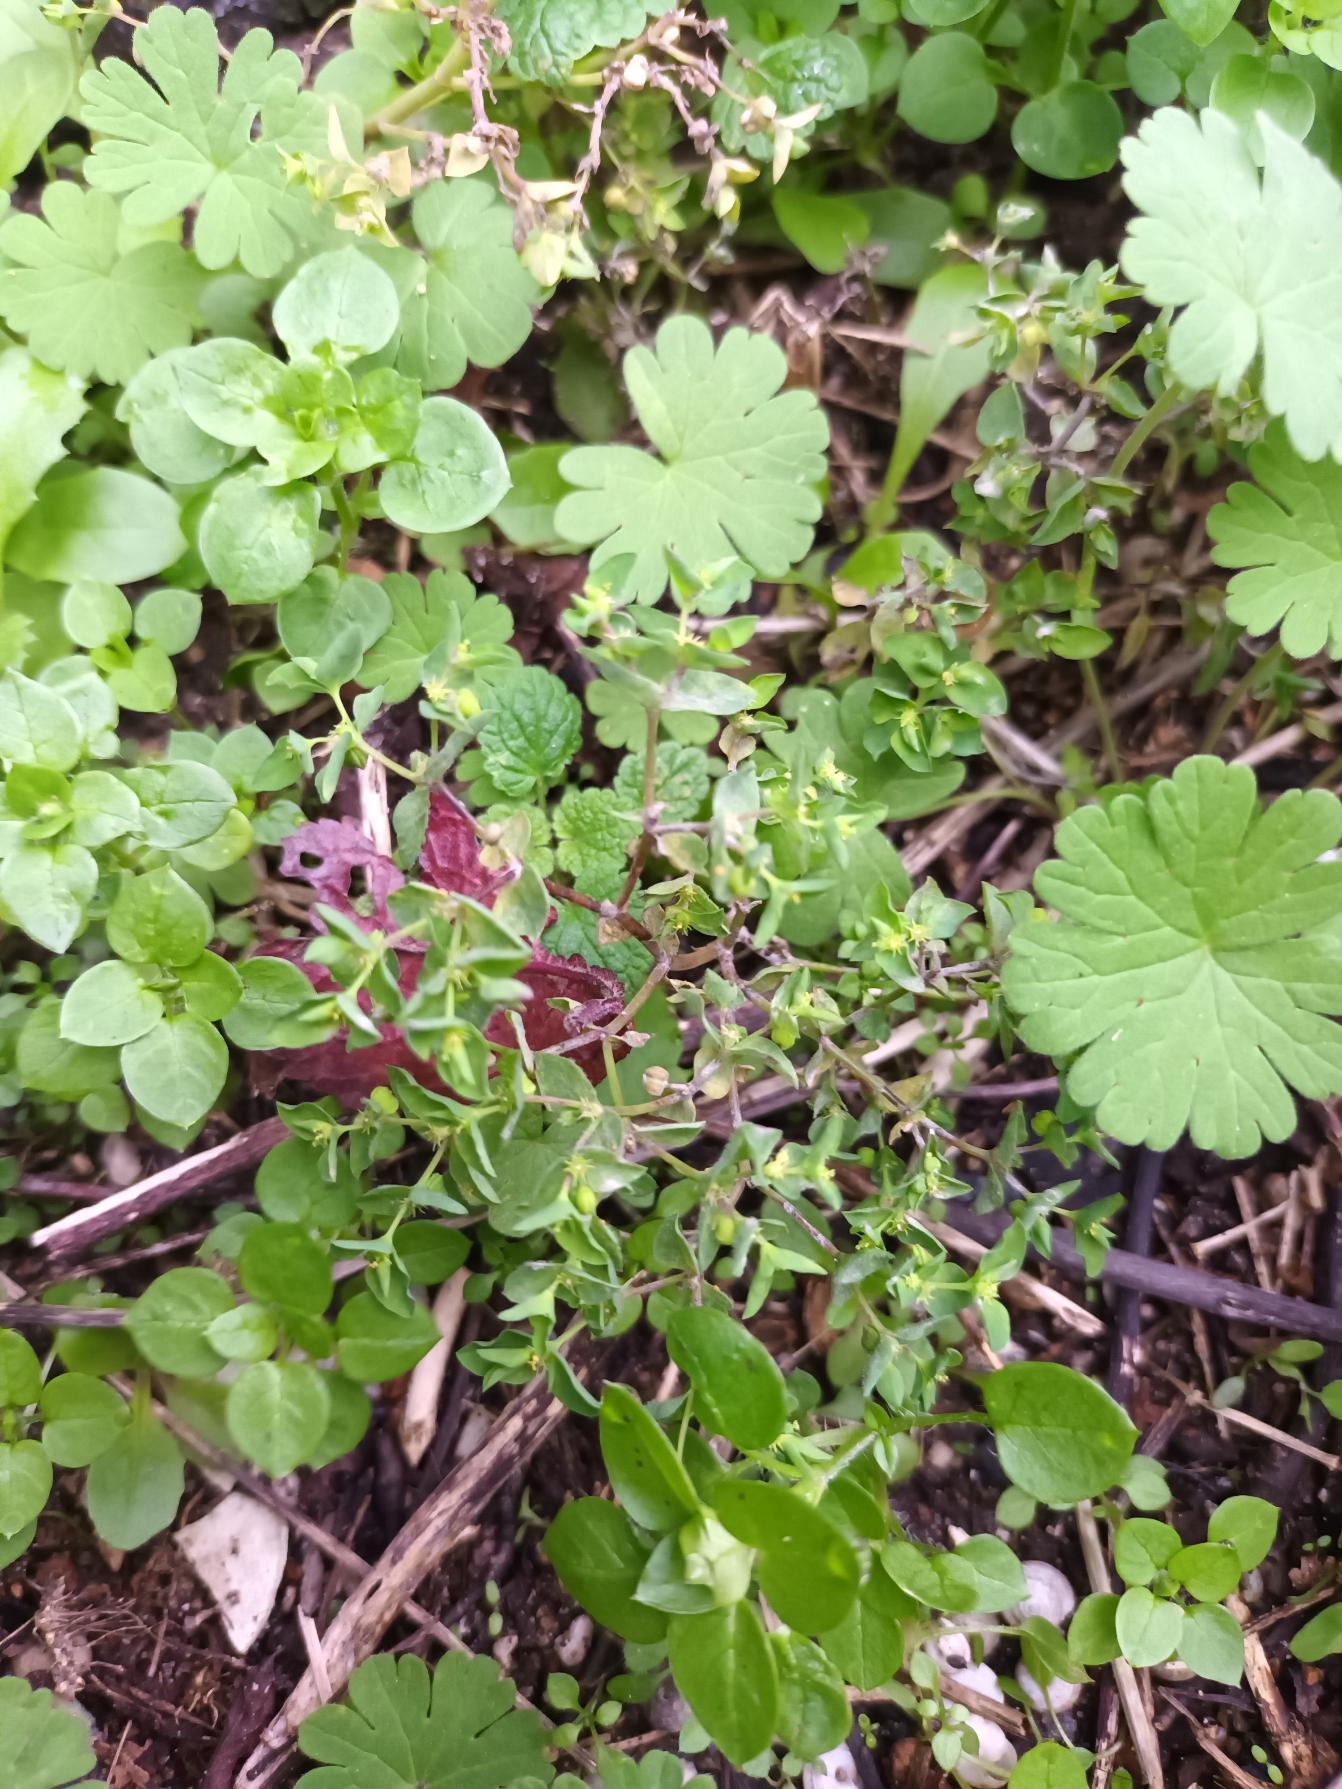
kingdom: Plantae
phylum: Tracheophyta
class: Magnoliopsida
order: Malpighiales
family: Euphorbiaceae
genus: Euphorbia
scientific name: Euphorbia peplus
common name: Gaffel-vortemælk
